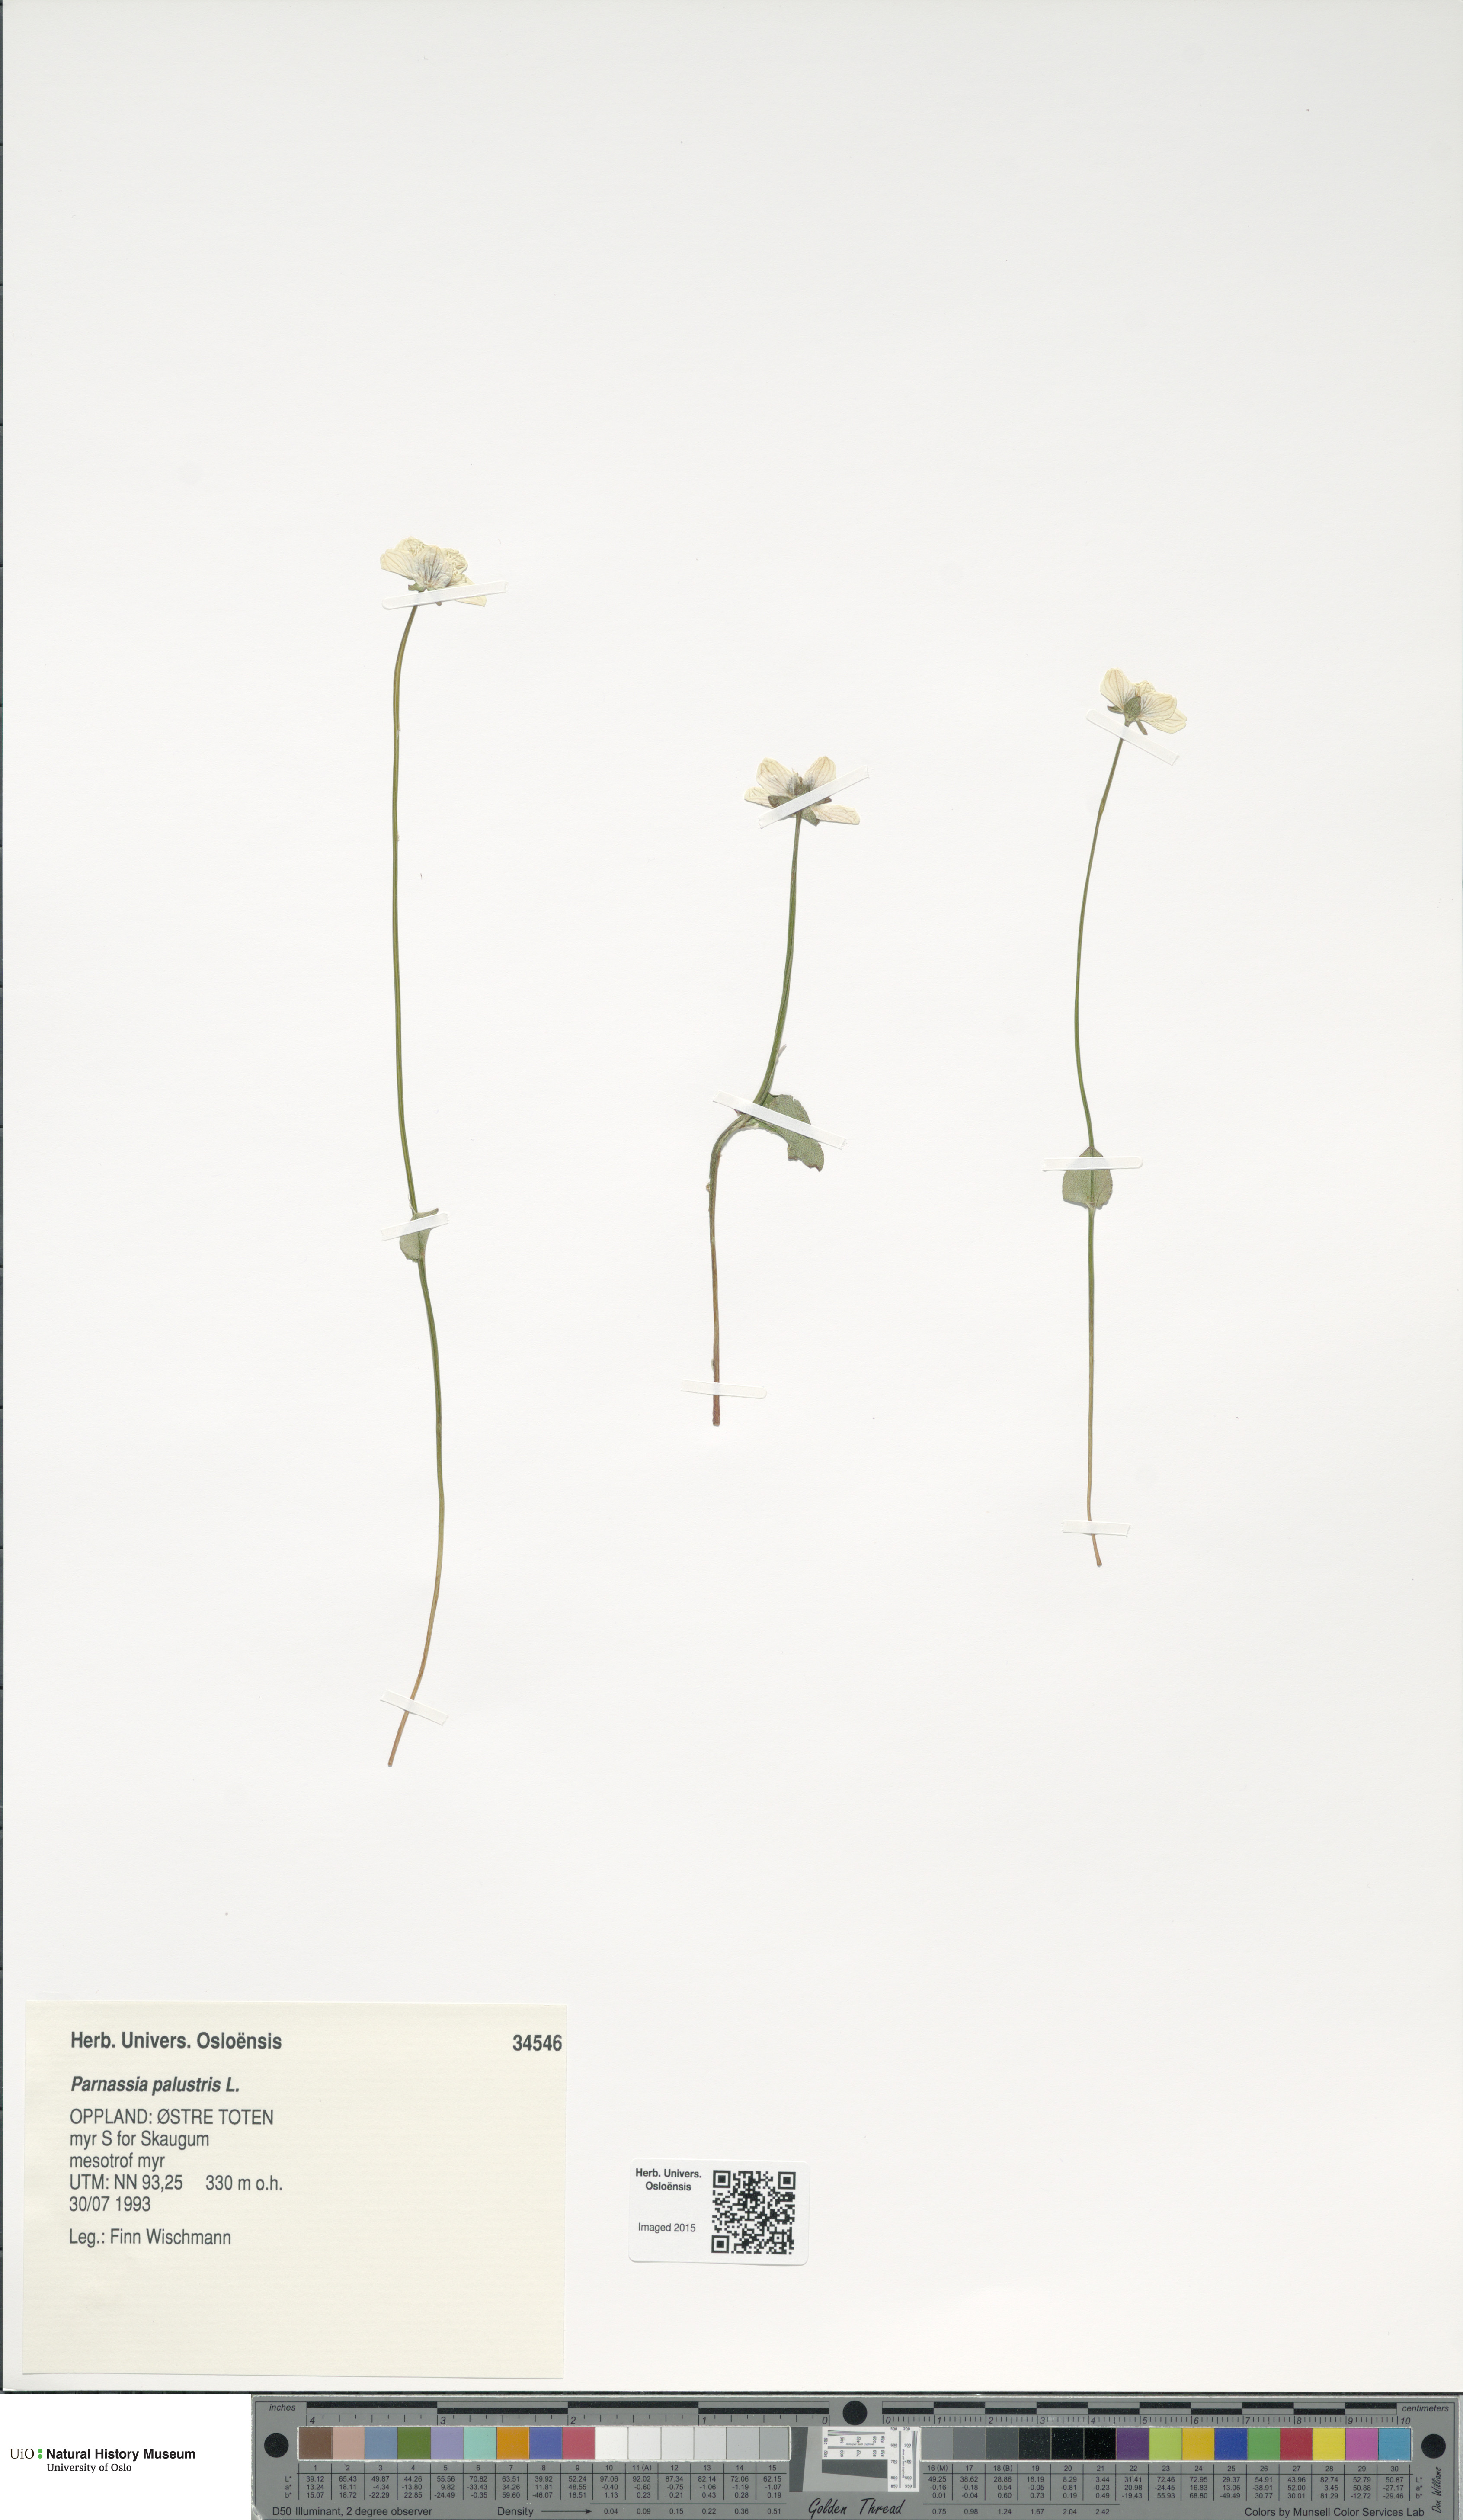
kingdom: Plantae
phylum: Tracheophyta
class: Magnoliopsida
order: Celastrales
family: Parnassiaceae
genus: Parnassia
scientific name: Parnassia palustris
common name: Grass-of-parnassus
